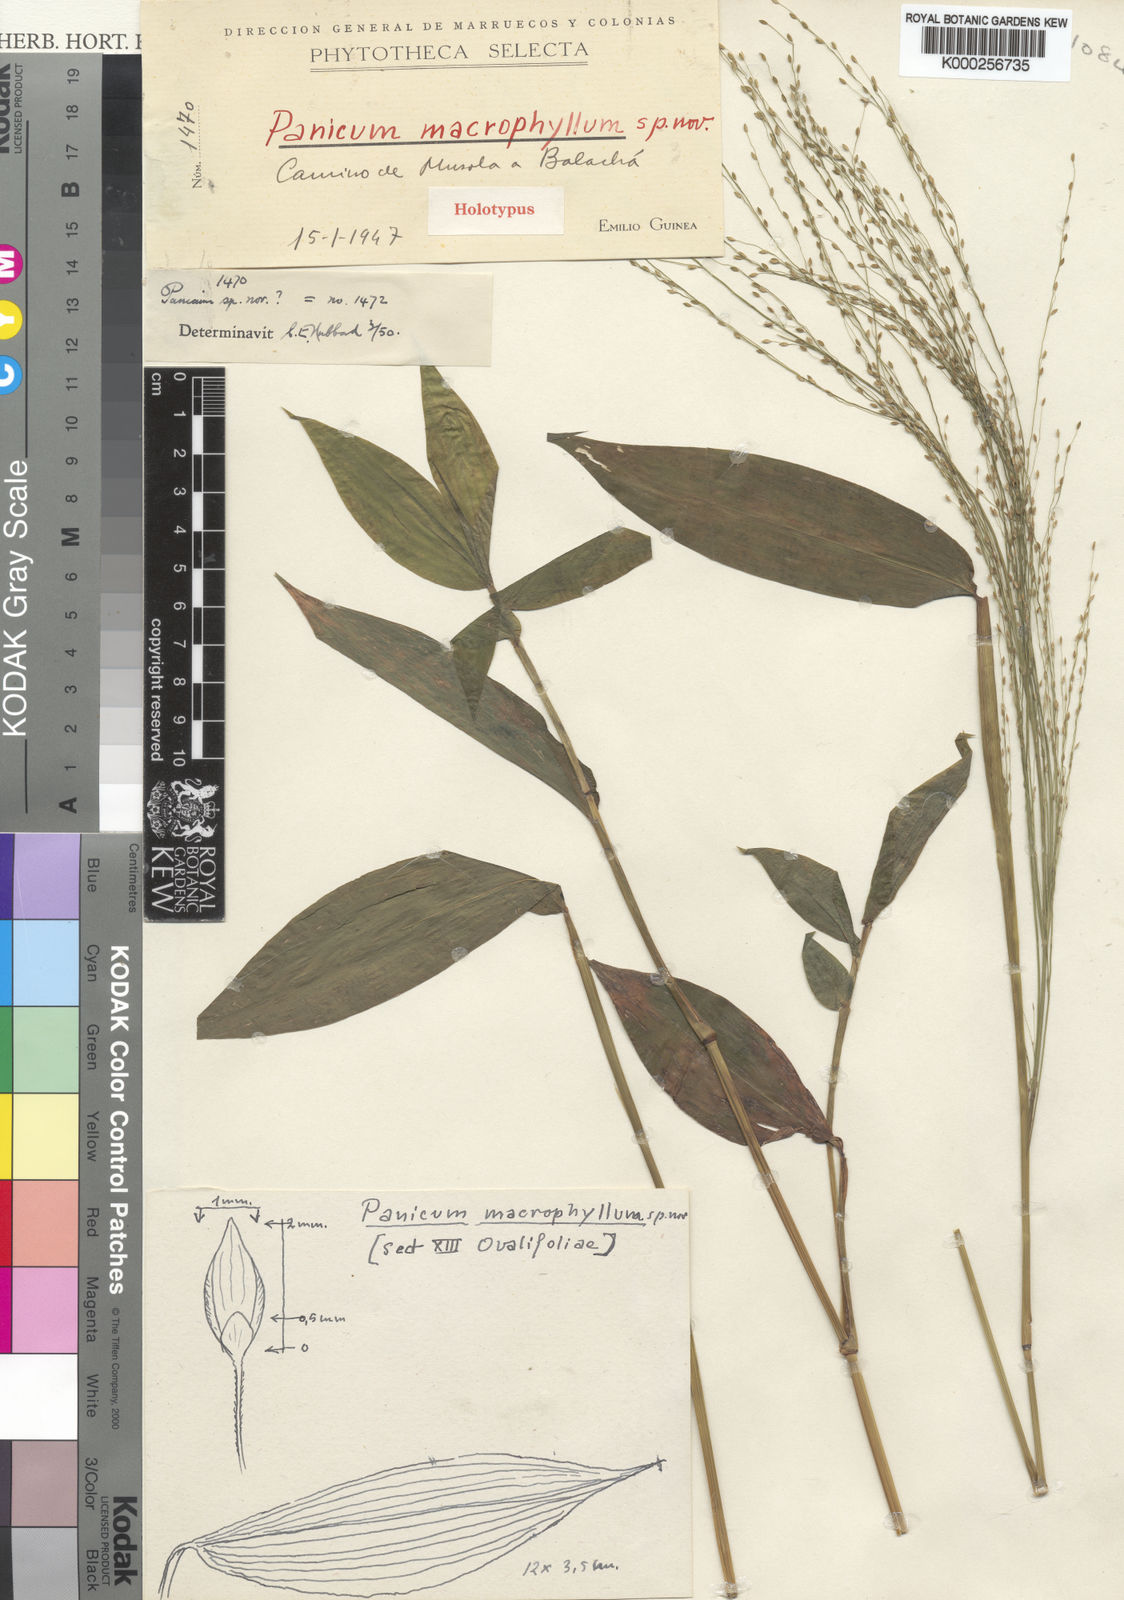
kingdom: Plantae
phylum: Tracheophyta
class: Liliopsida
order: Poales
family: Poaceae
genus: Panicum
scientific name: Panicum monticola
